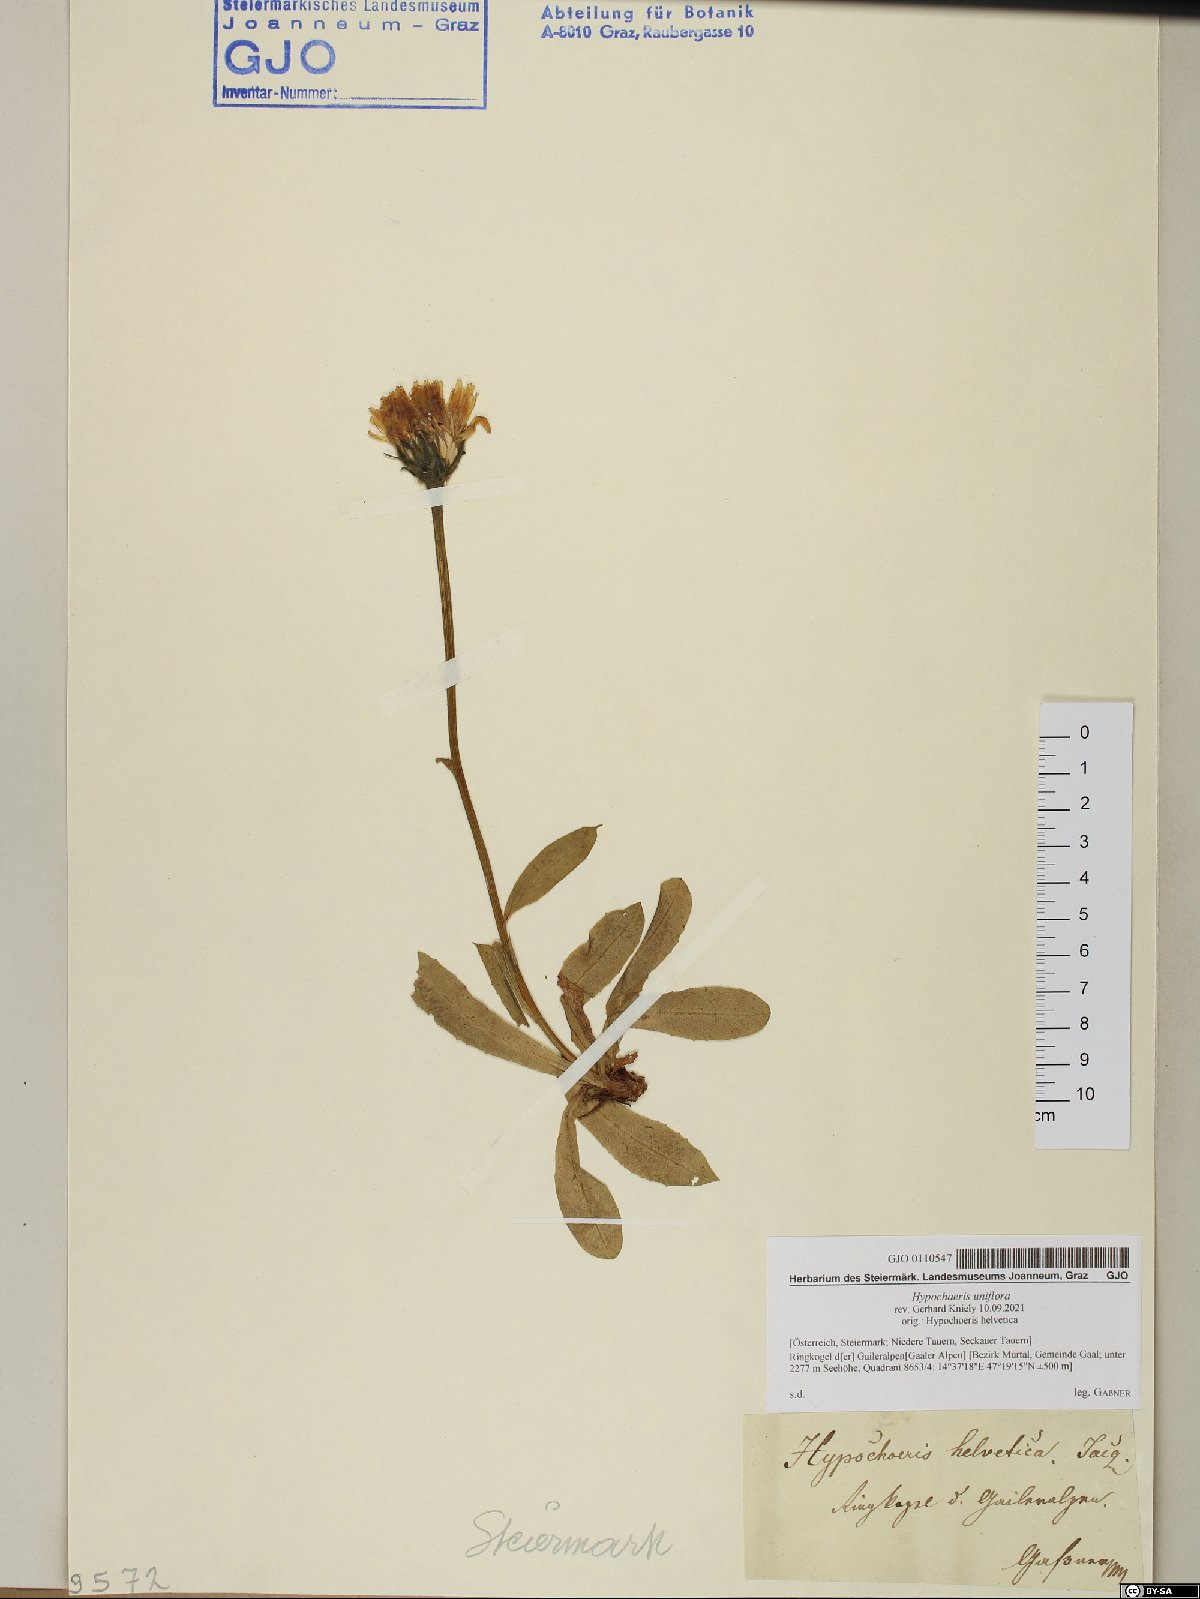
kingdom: Plantae
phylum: Tracheophyta
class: Magnoliopsida
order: Asterales
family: Asteraceae
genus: Trommsdorffia
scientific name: Trommsdorffia uniflora
